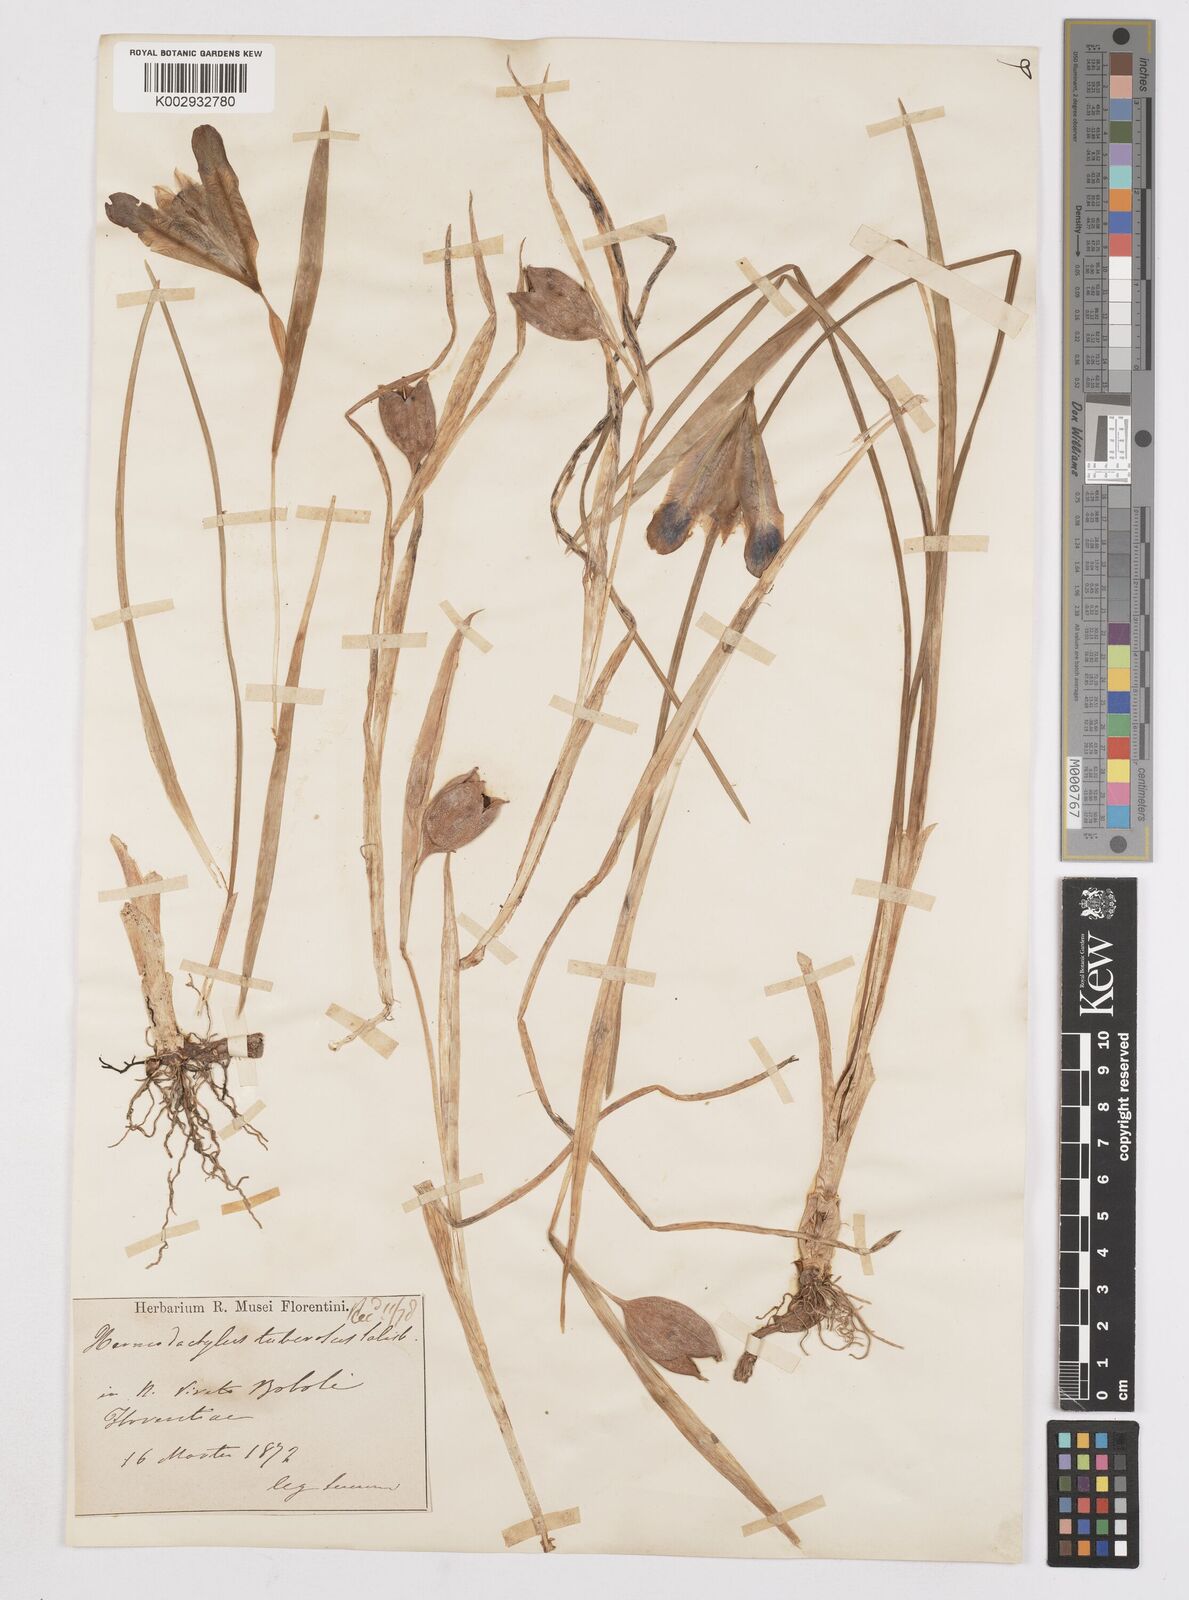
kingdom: Plantae
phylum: Tracheophyta
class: Liliopsida
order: Asparagales
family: Iridaceae
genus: Iris
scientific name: Iris tuberosa
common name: Snake's-head iris
